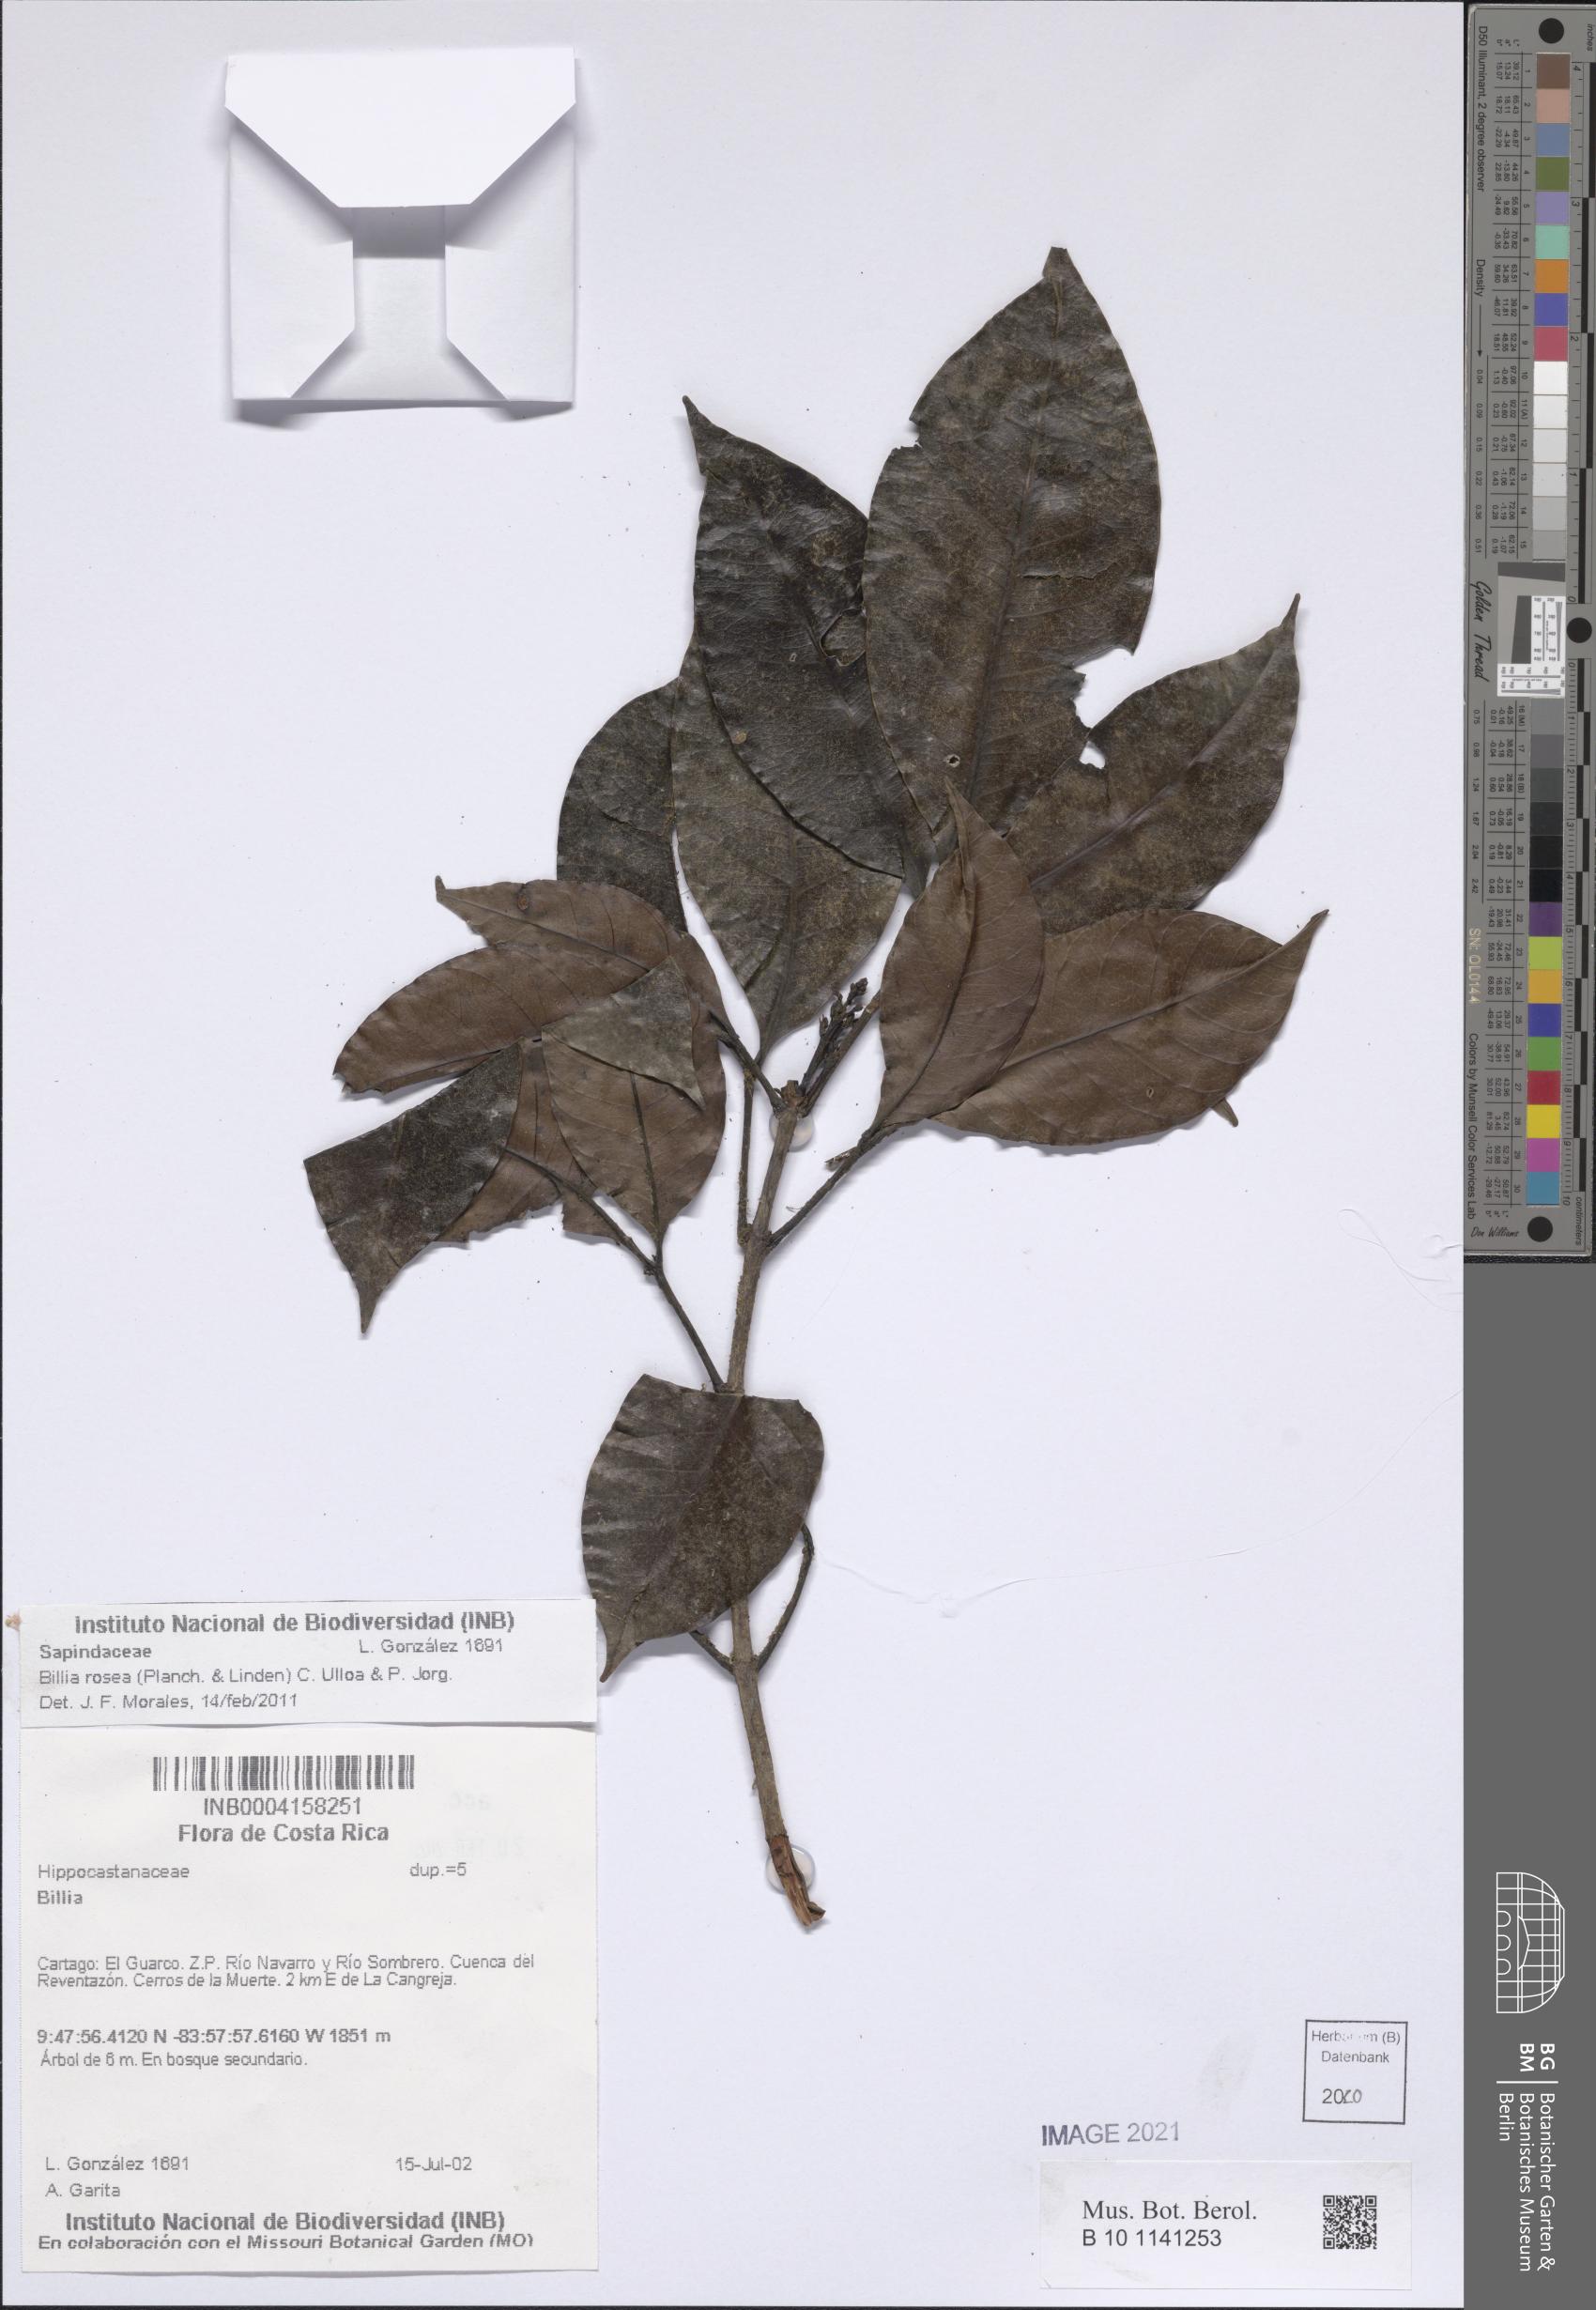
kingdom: Plantae
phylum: Tracheophyta
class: Magnoliopsida
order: Sapindales
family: Sapindaceae
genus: Billia
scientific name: Billia rosea
